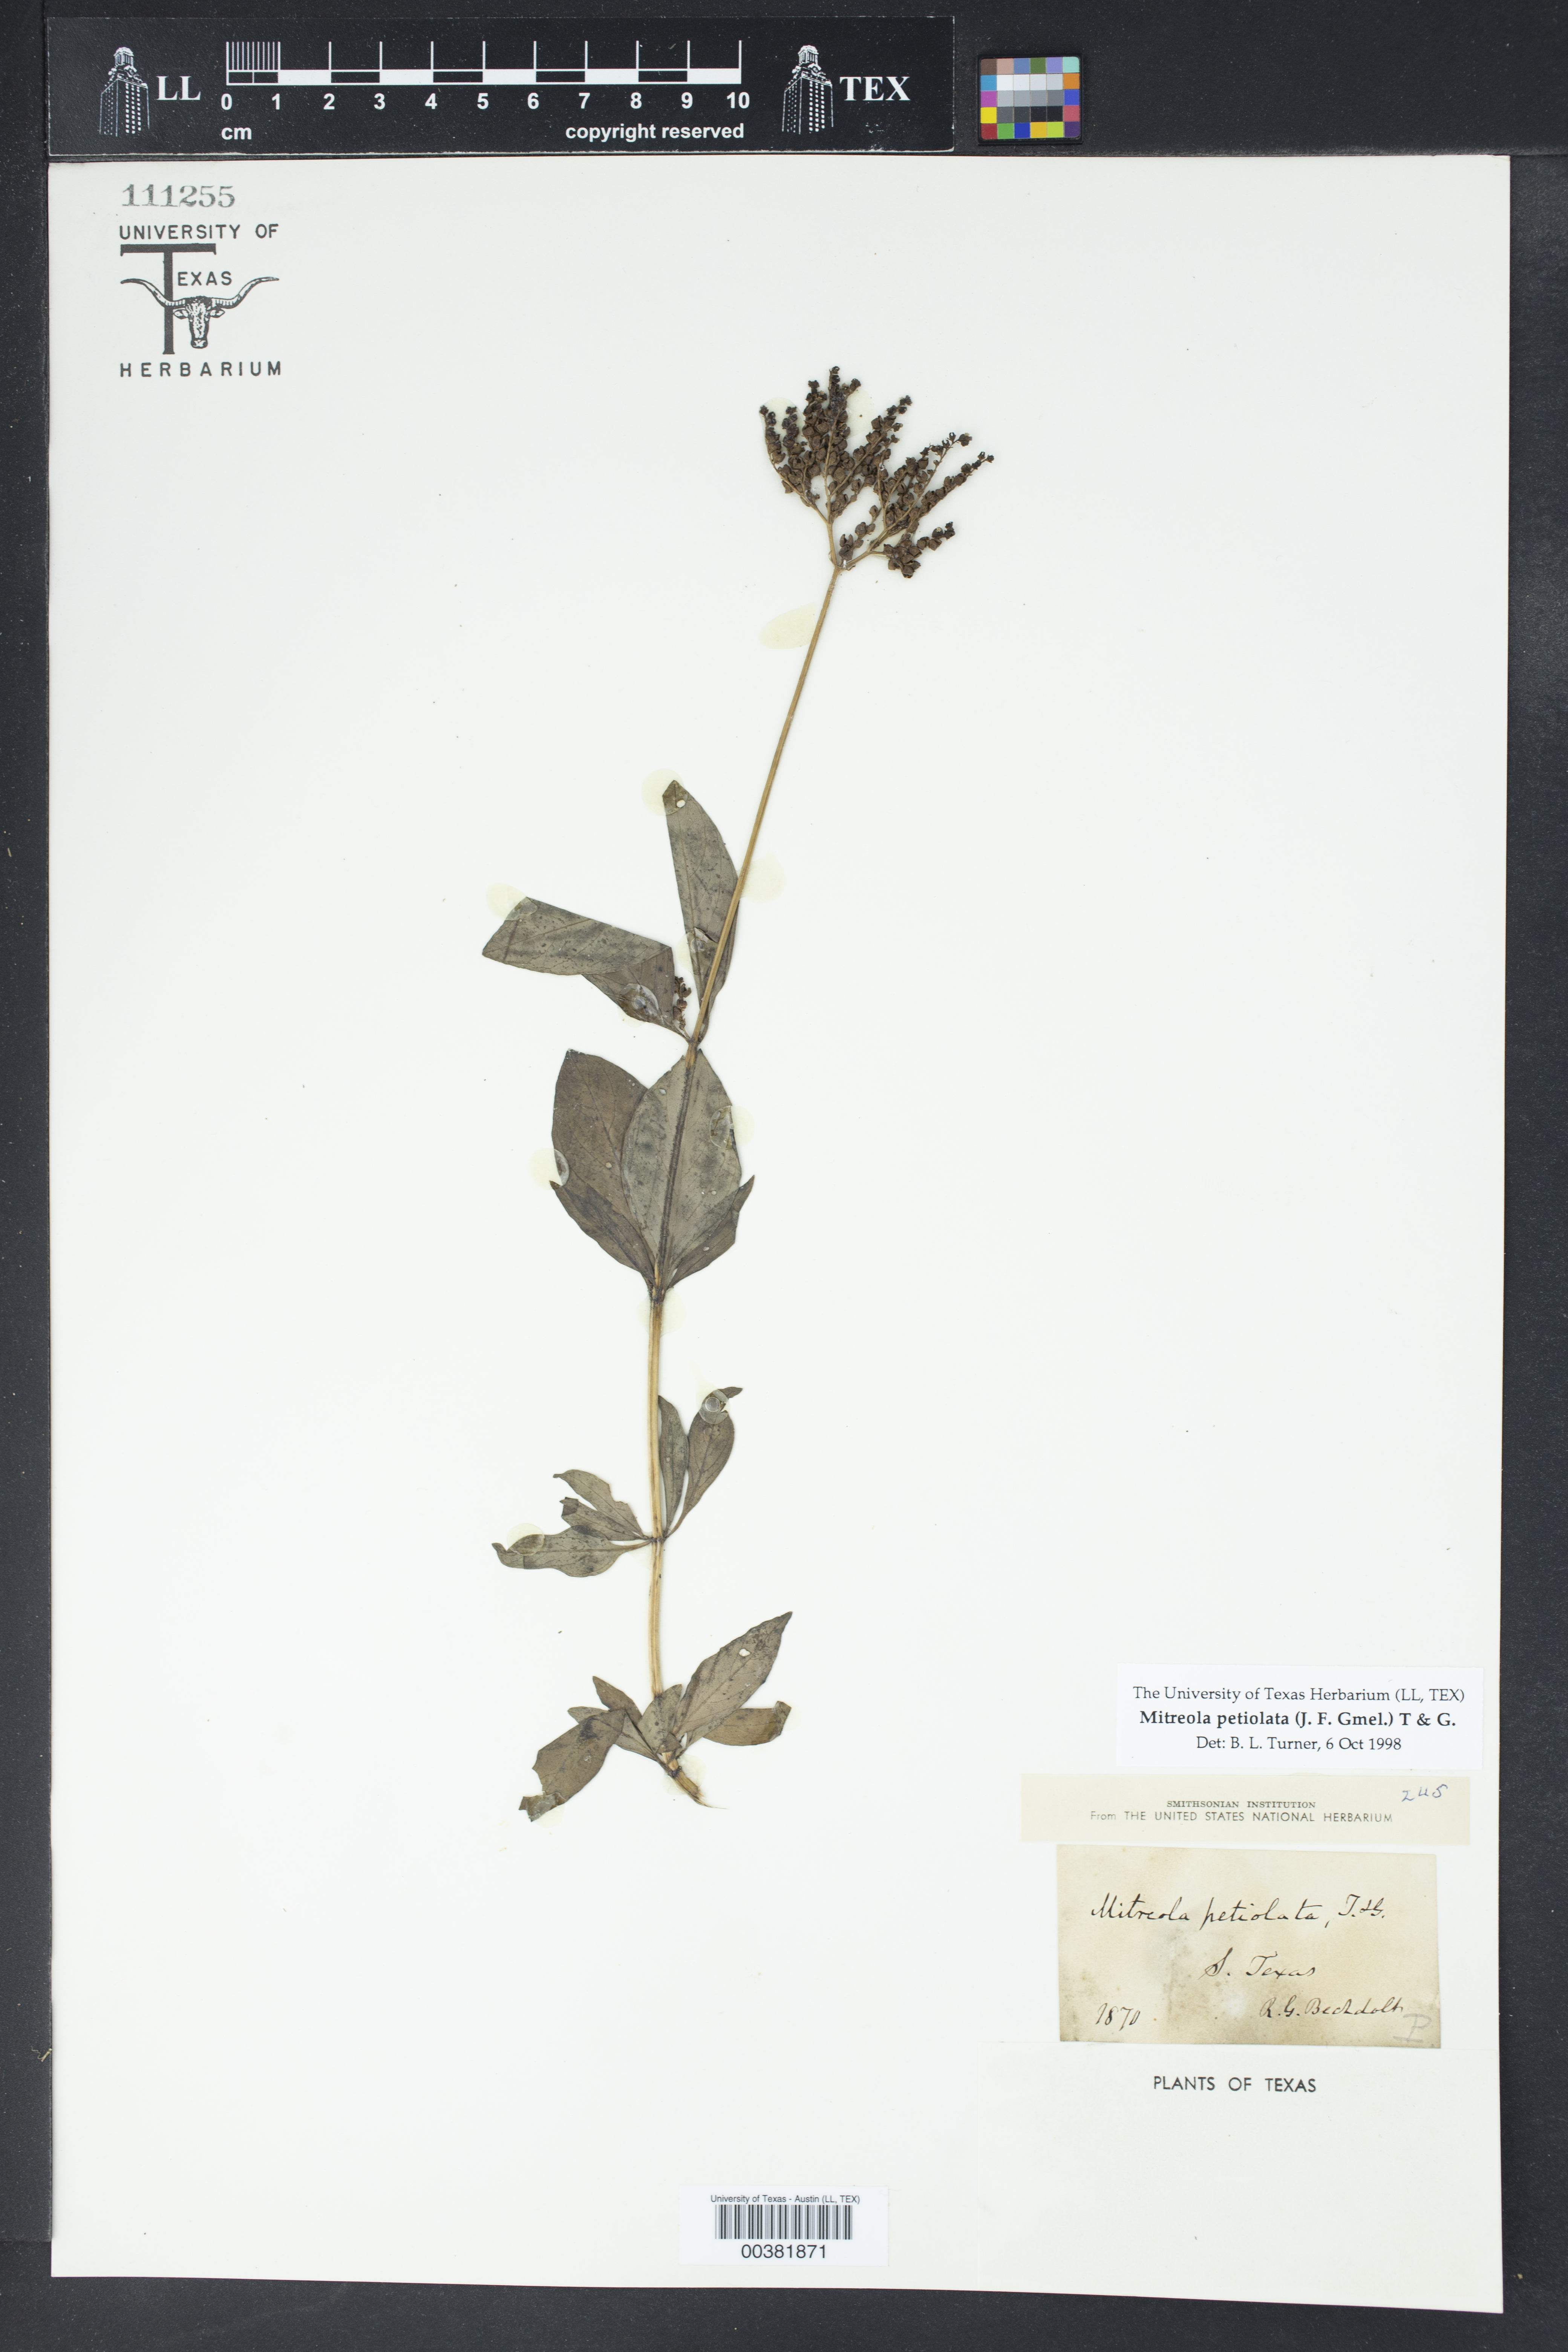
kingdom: Plantae
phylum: Tracheophyta
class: Magnoliopsida
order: Gentianales
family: Loganiaceae
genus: Mitreola
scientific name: Mitreola petiolata
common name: Lax hornpod
